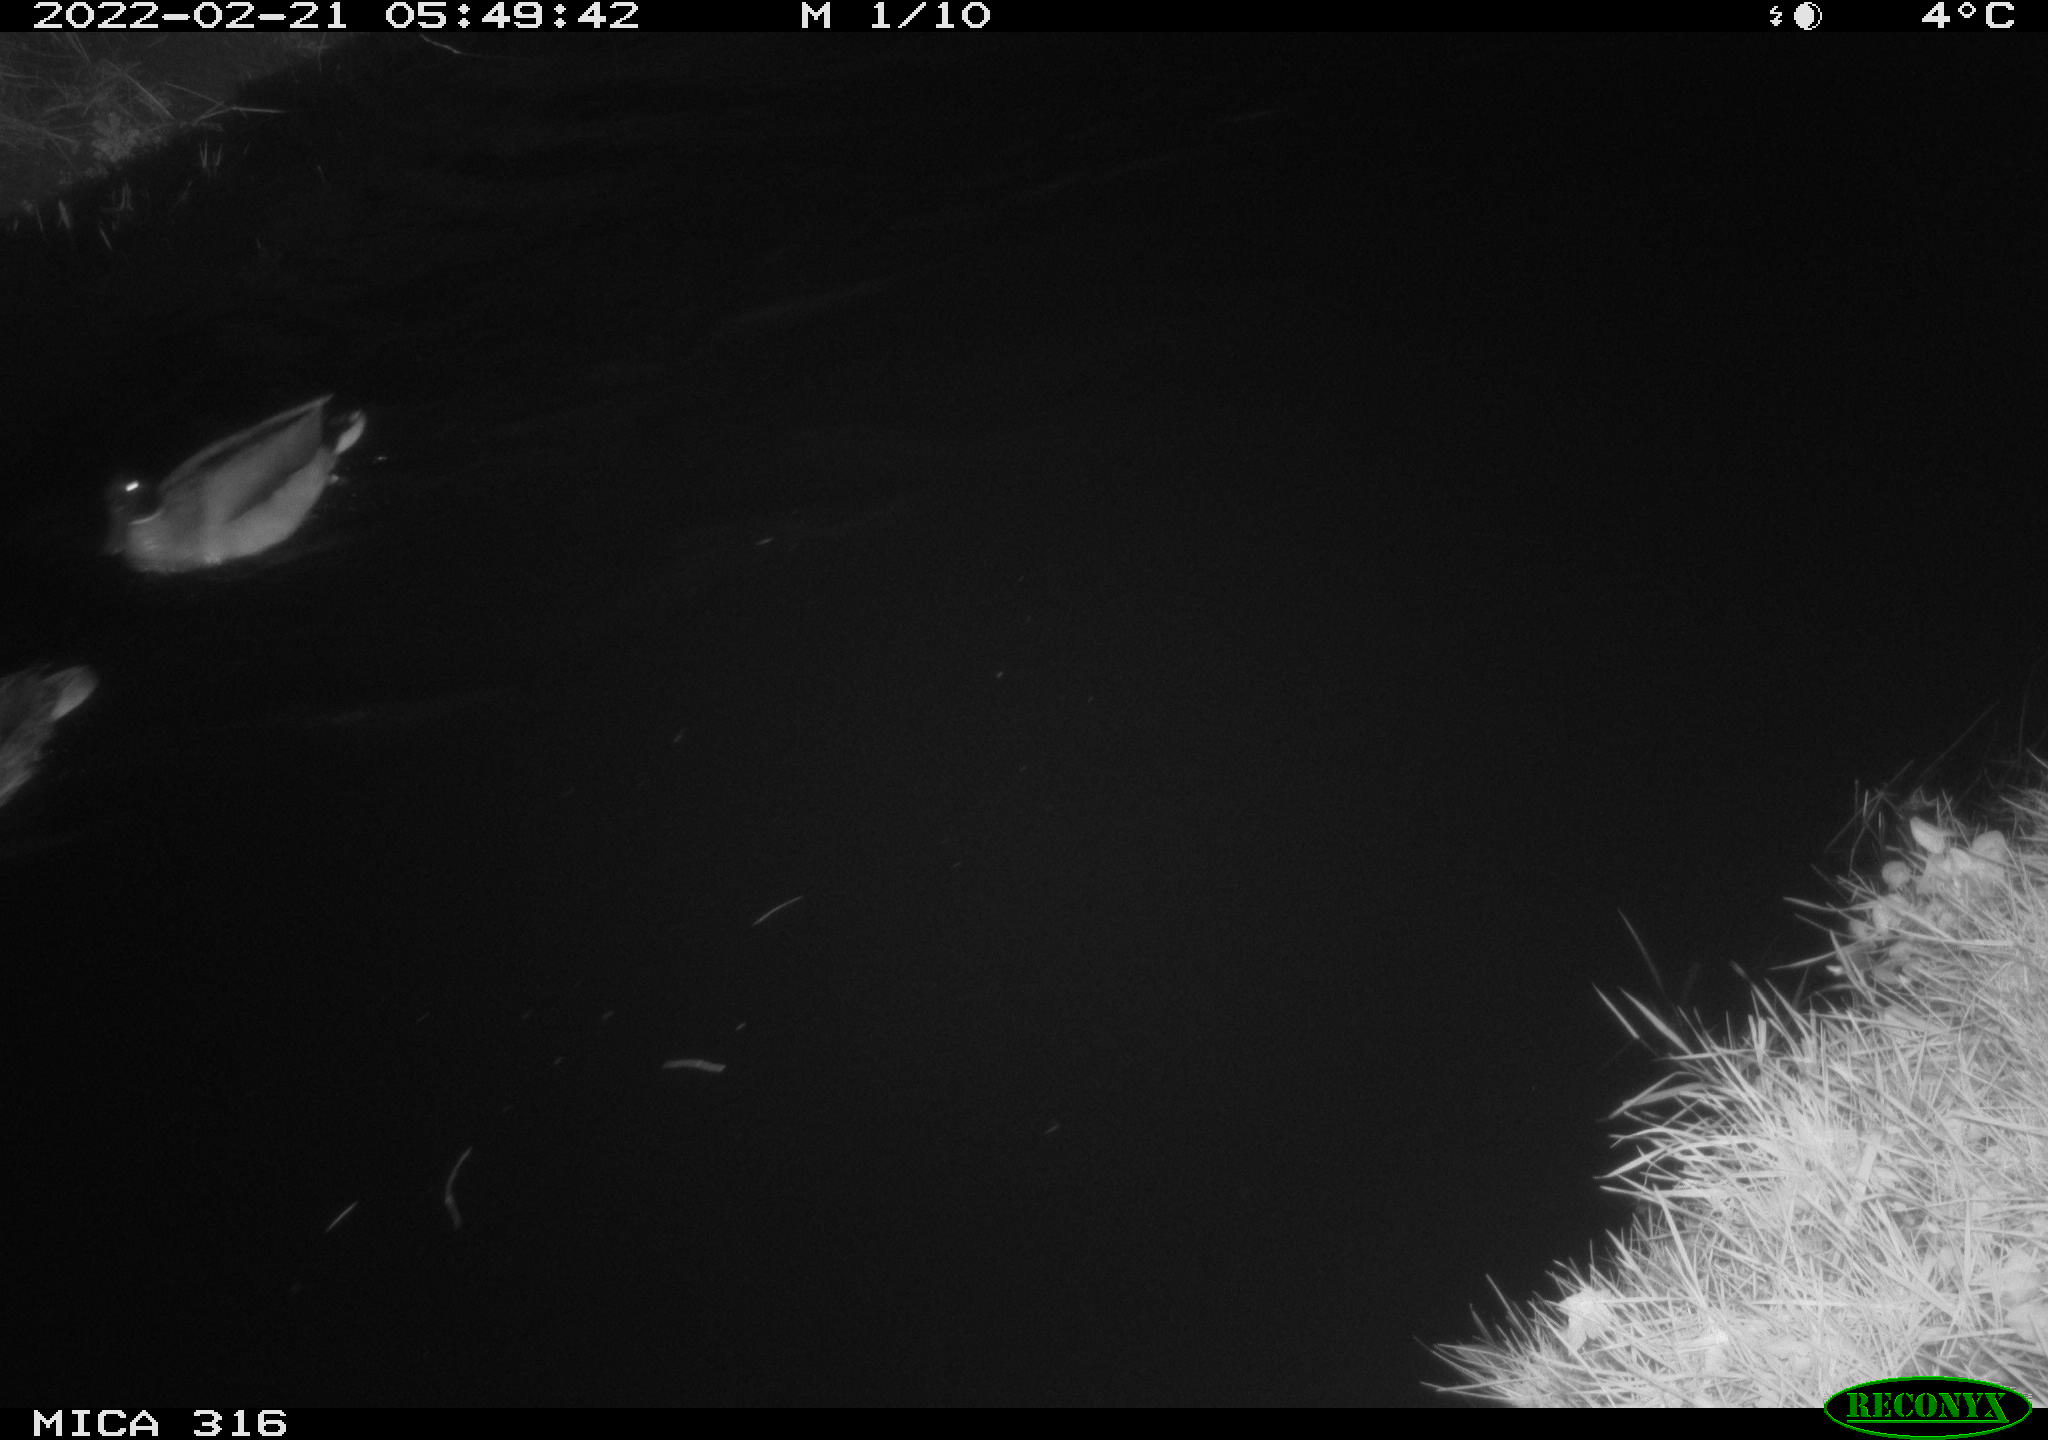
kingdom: Animalia
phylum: Chordata
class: Aves
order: Anseriformes
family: Anatidae
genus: Anas
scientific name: Anas platyrhynchos
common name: Mallard
